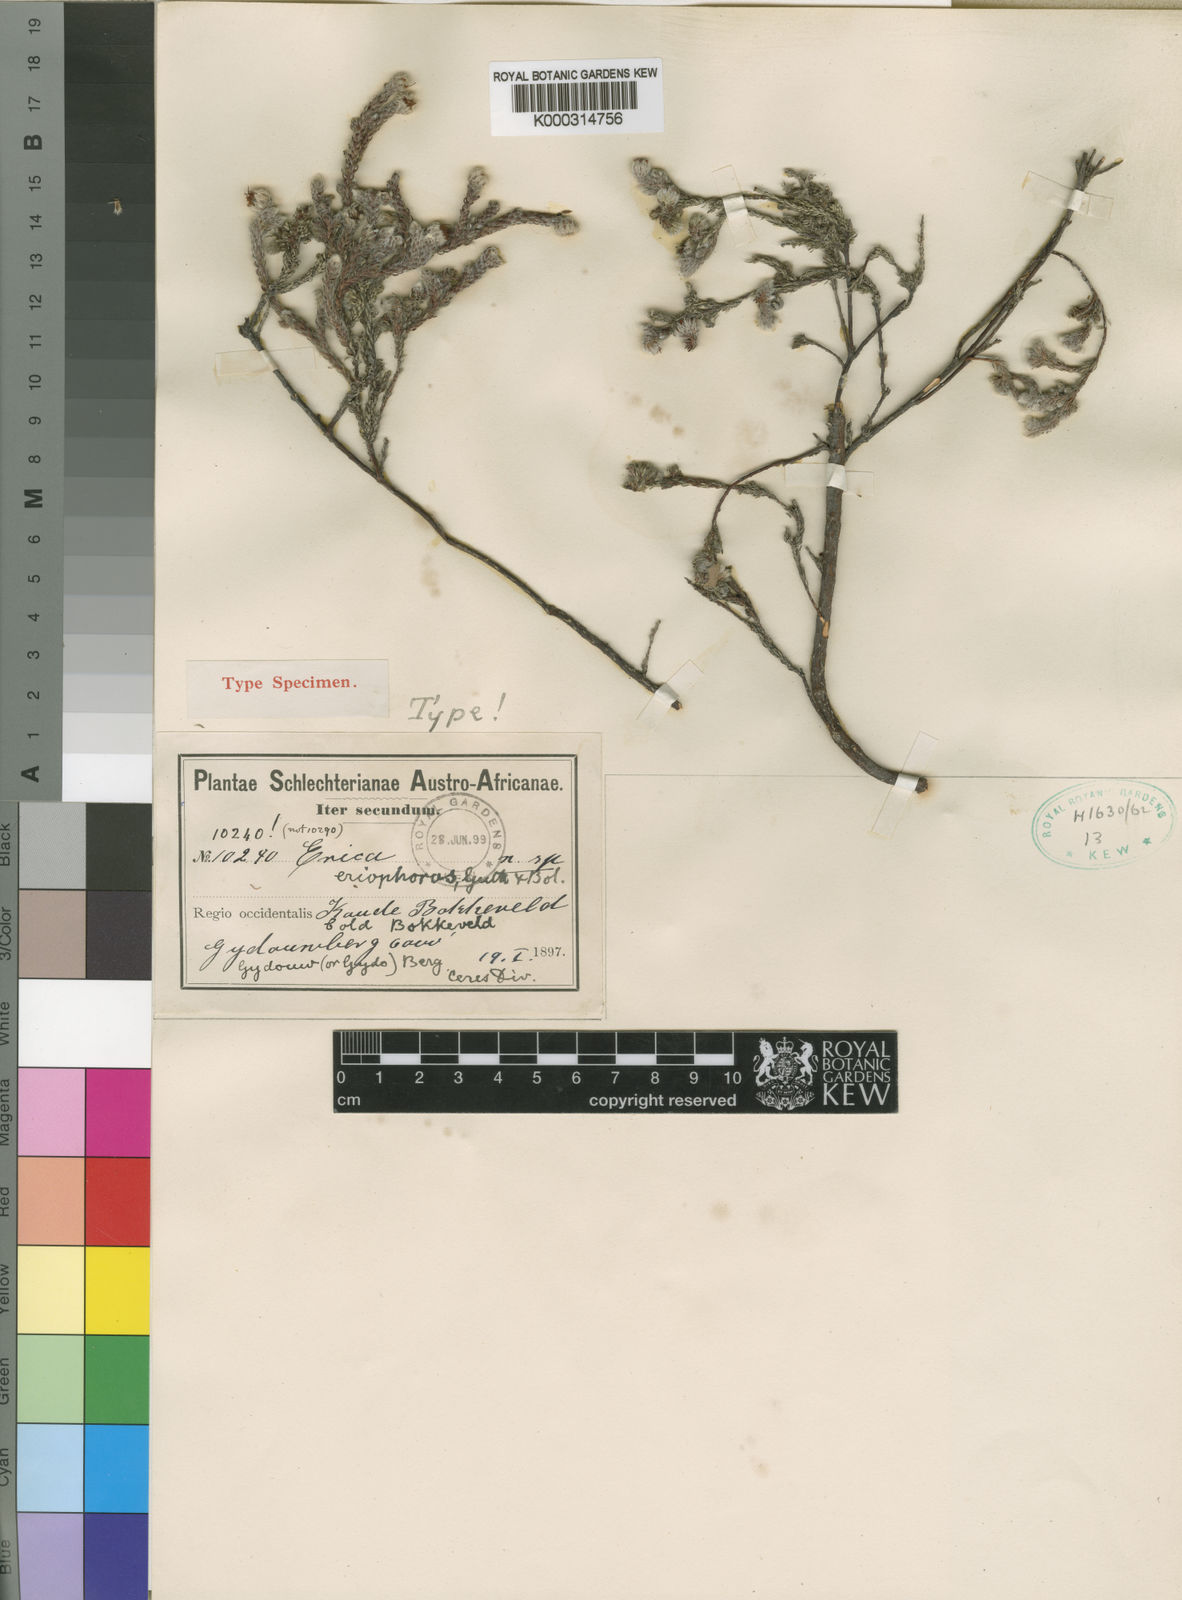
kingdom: Plantae
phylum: Tracheophyta
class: Magnoliopsida
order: Ericales
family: Ericaceae
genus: Erica
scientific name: Erica eriophoros
